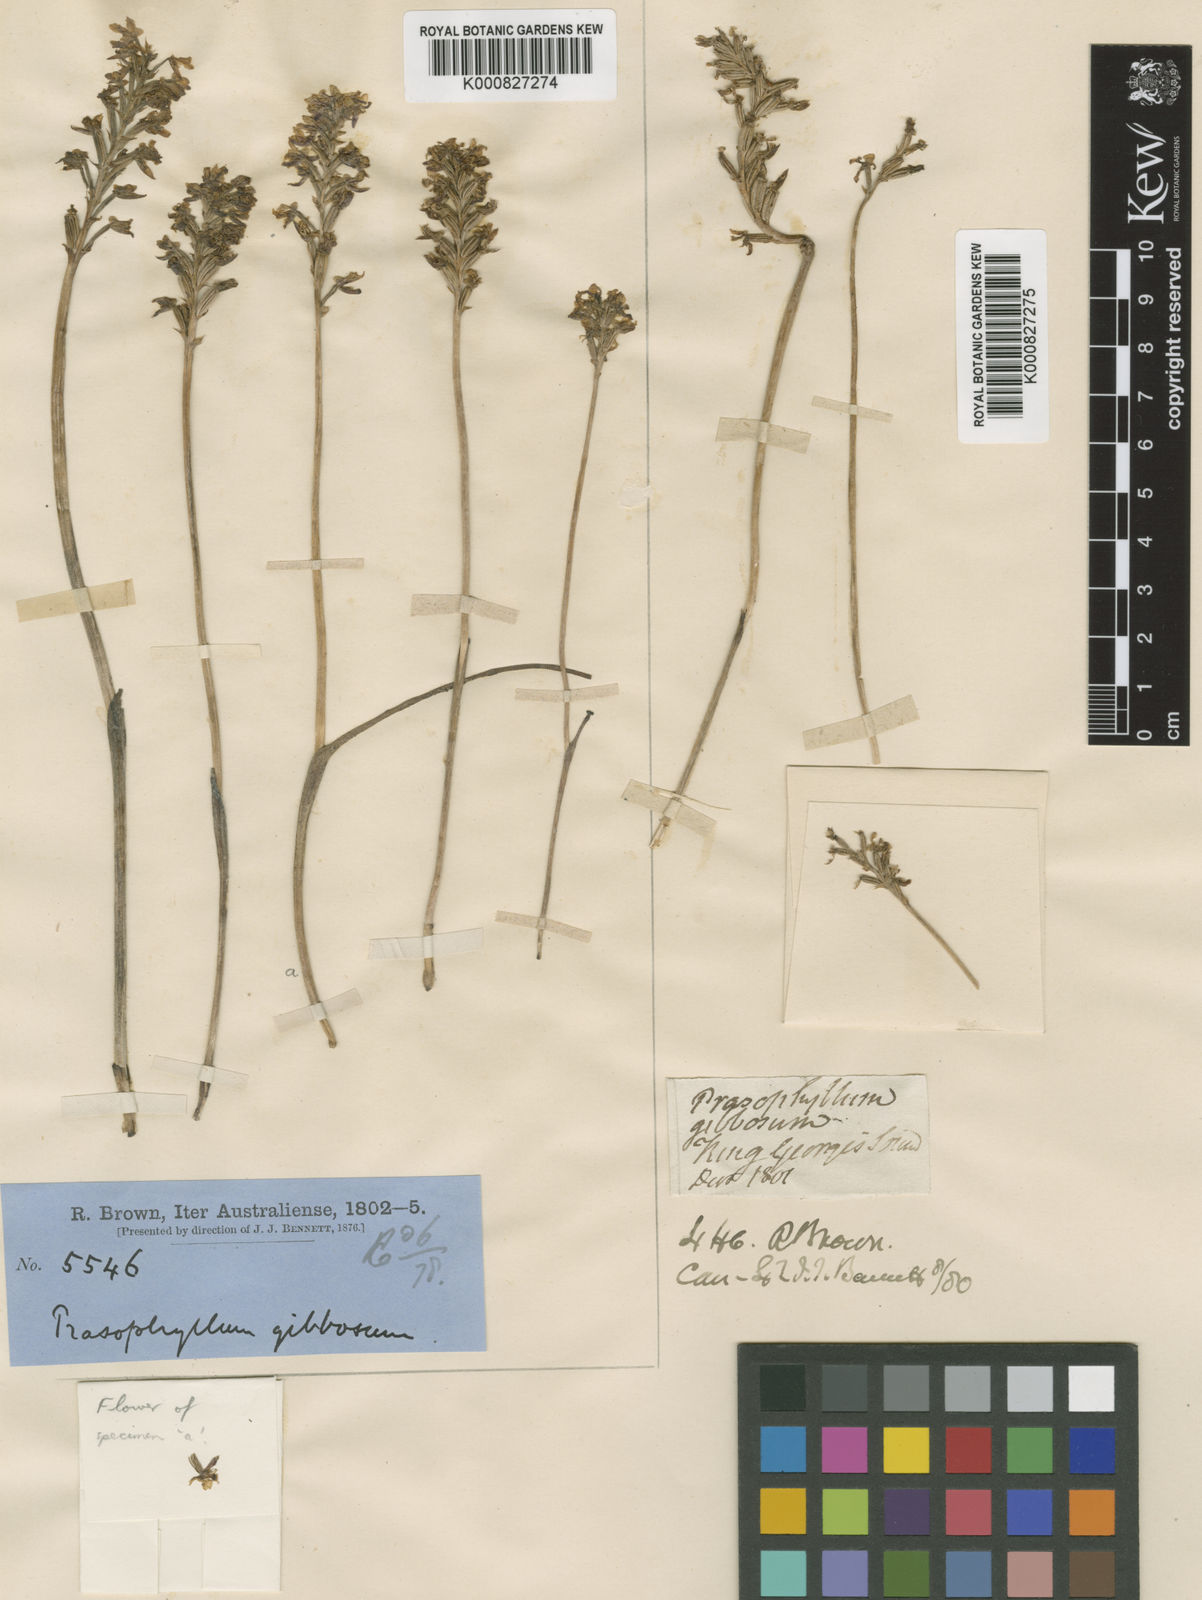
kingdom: Plantae
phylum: Tracheophyta
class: Liliopsida
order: Asparagales
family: Orchidaceae
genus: Prasophyllum
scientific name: Prasophyllum gibbosum
